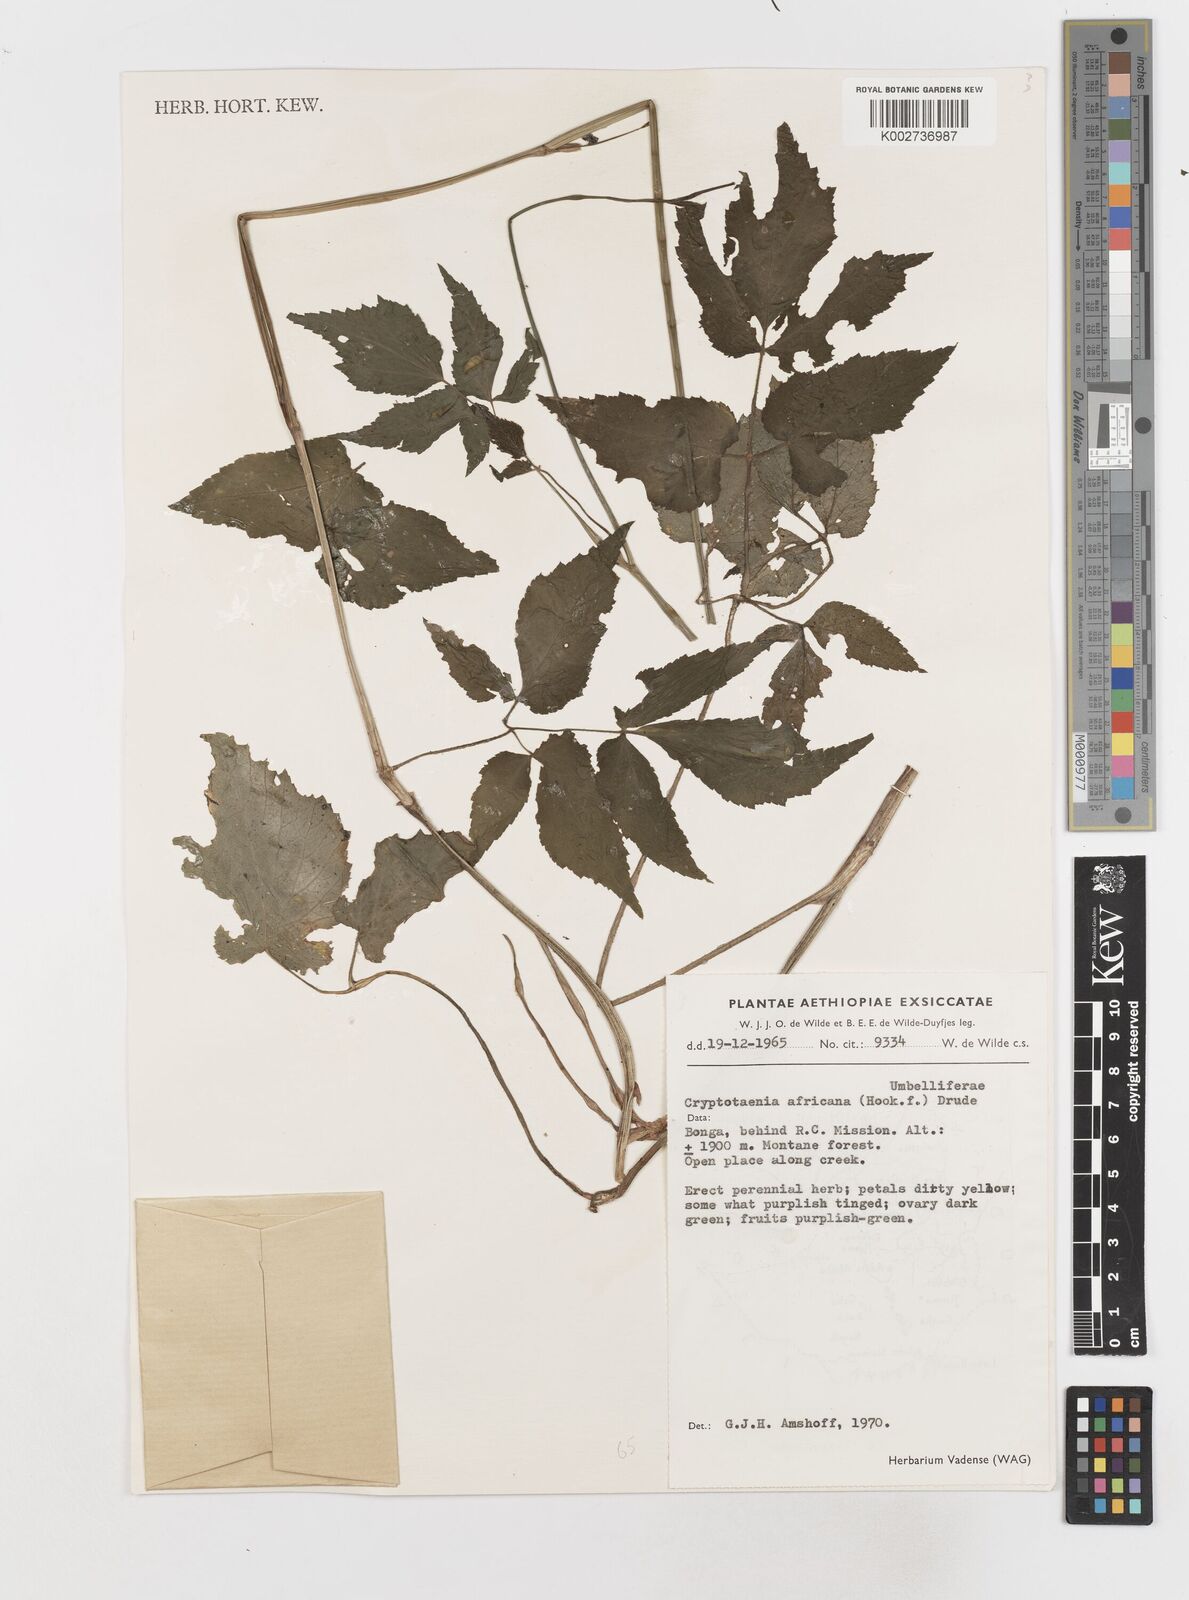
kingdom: Plantae
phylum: Tracheophyta
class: Magnoliopsida
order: Apiales
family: Apiaceae
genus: Cryptotaenia
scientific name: Cryptotaenia africana
